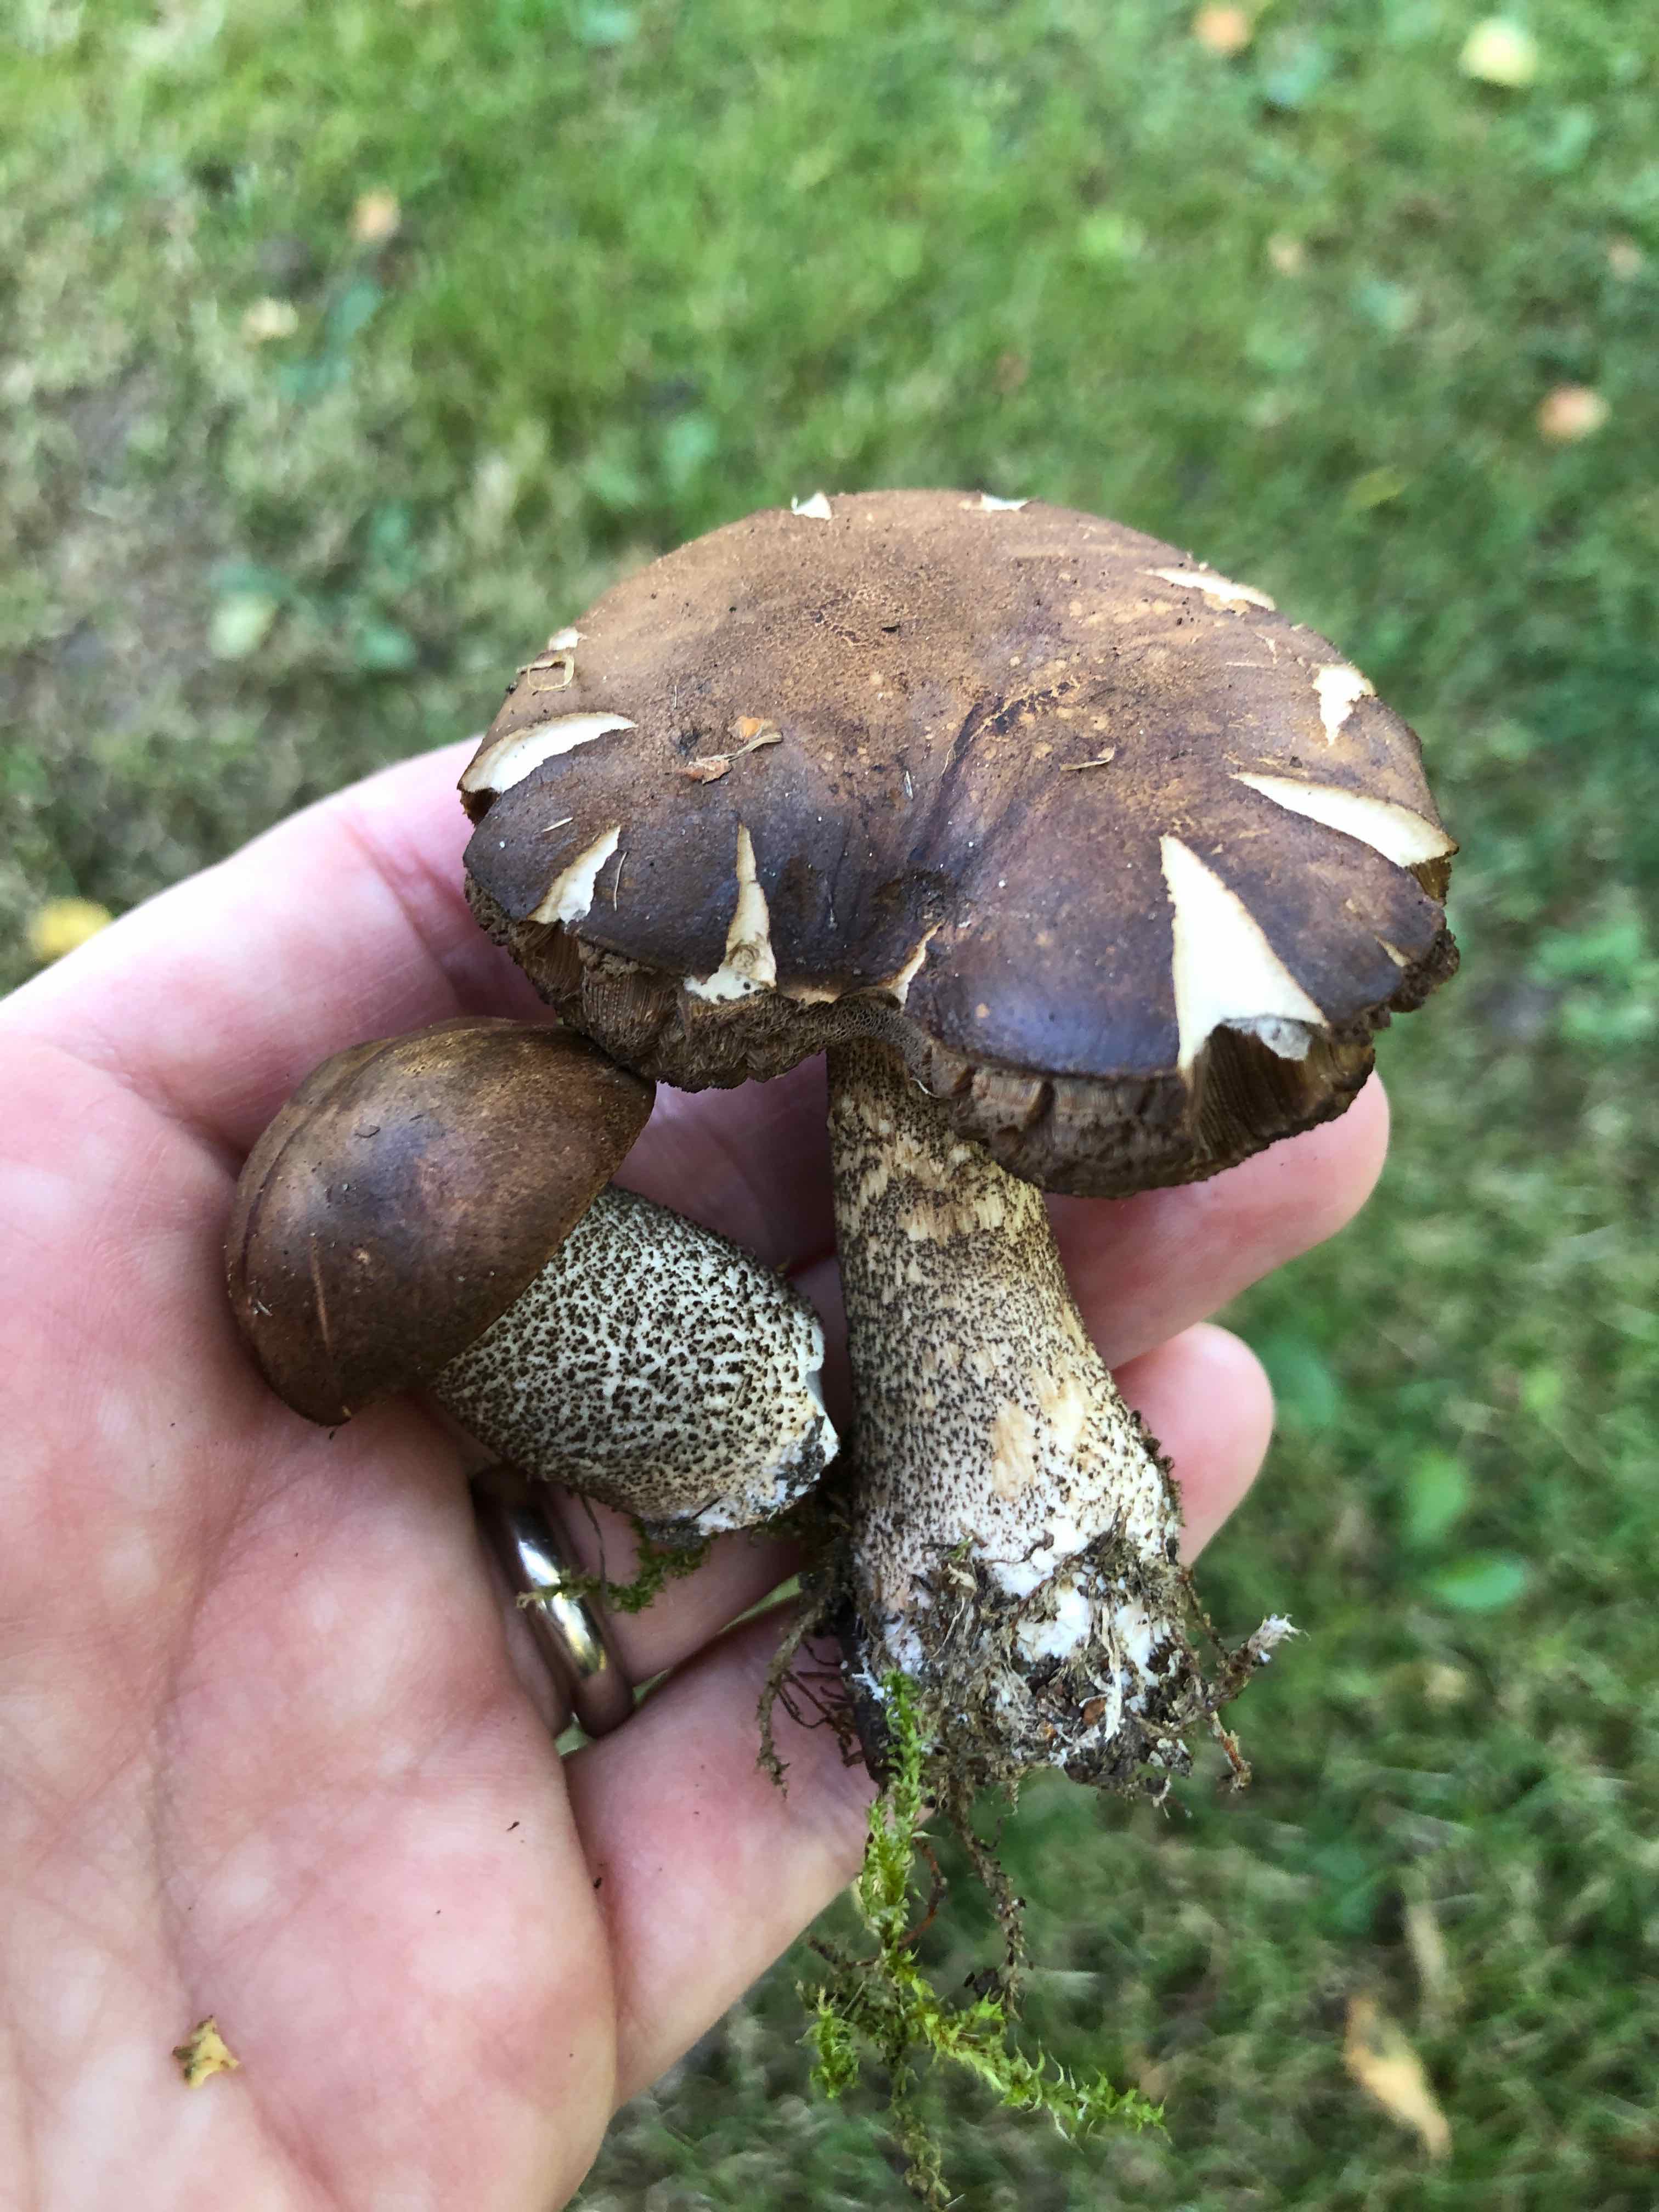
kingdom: Fungi
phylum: Basidiomycota
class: Agaricomycetes
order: Boletales
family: Boletaceae
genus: Leccinum
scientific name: Leccinum scabrum
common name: brun skælrørhat
